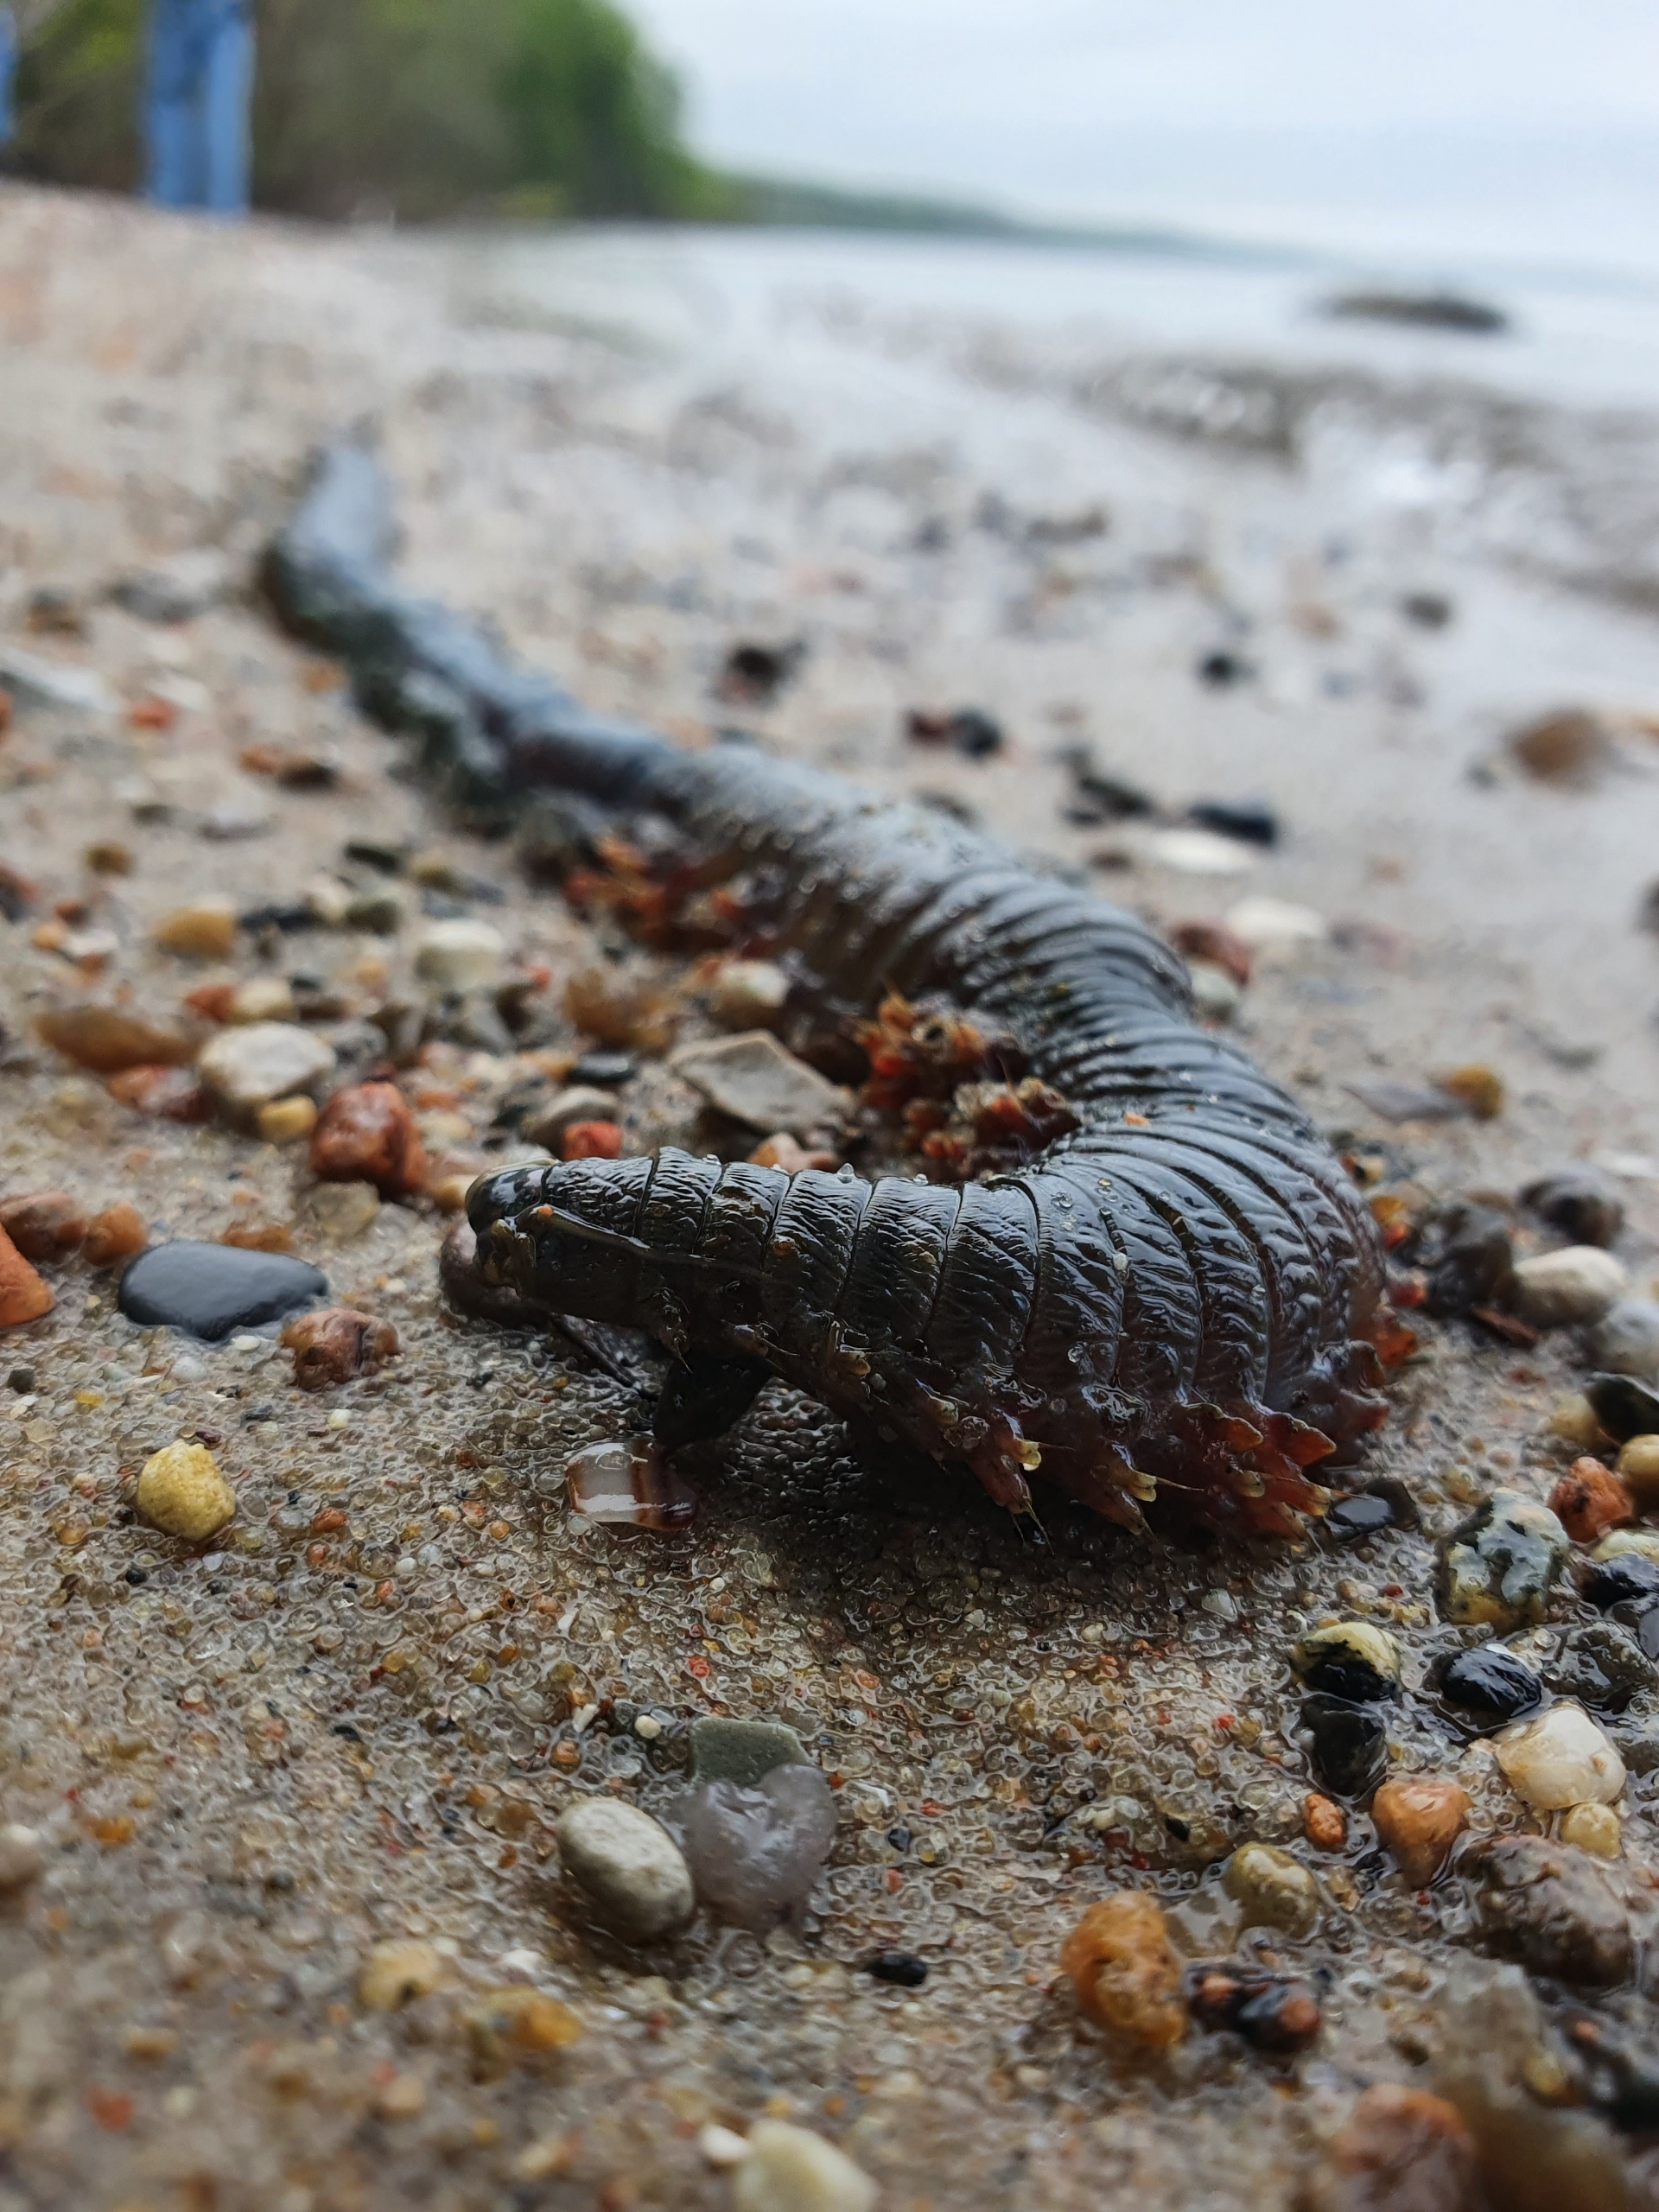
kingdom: Animalia
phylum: Annelida
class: Polychaeta
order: Phyllodocida
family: Nereididae
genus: Alitta
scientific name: Alitta virens
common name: Grøn nereis
